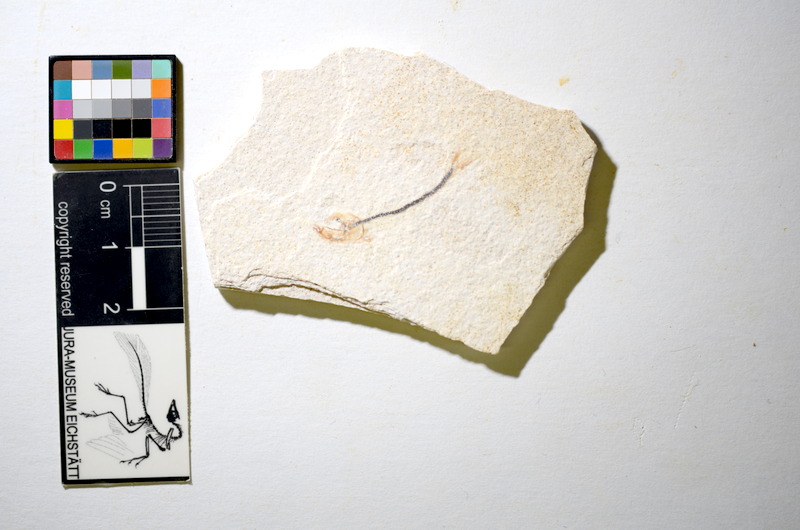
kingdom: Animalia
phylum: Chordata
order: Salmoniformes
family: Orthogonikleithridae
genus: Orthogonikleithrus
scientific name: Orthogonikleithrus hoelli
